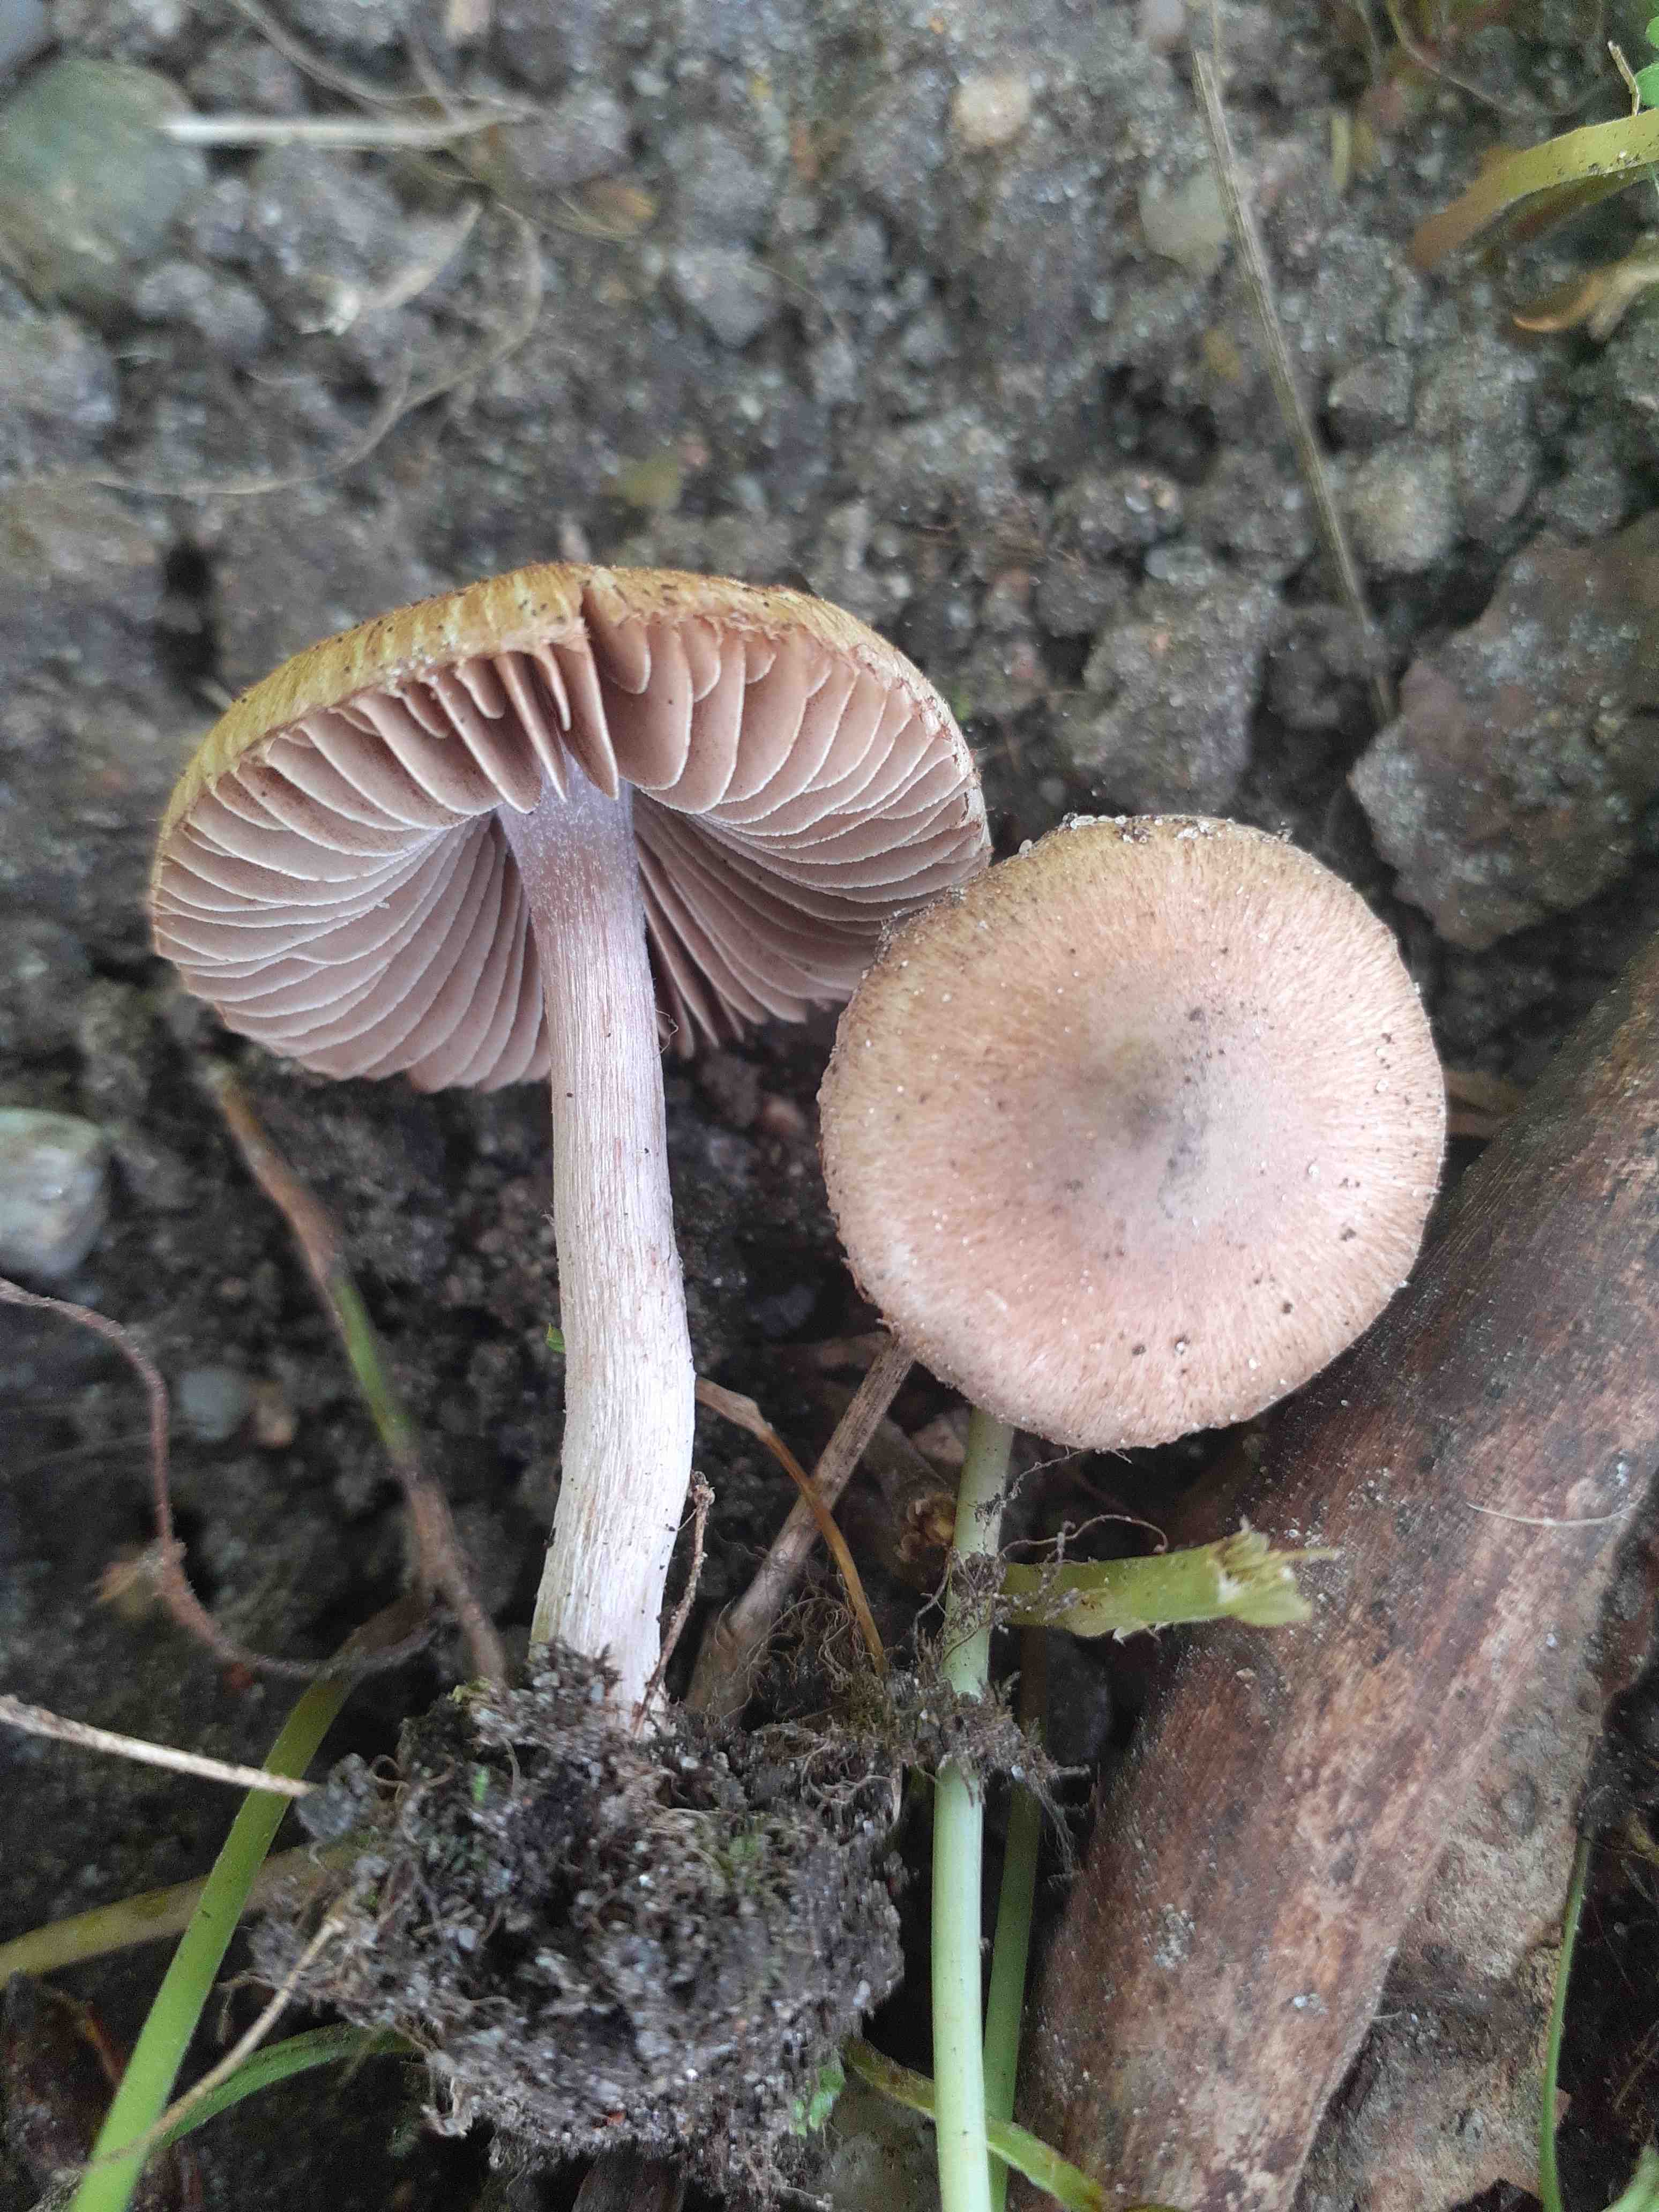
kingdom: Fungi
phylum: Basidiomycota
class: Agaricomycetes
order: Agaricales
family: Inocybaceae
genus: Inocybe
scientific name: Inocybe paleoveneta
